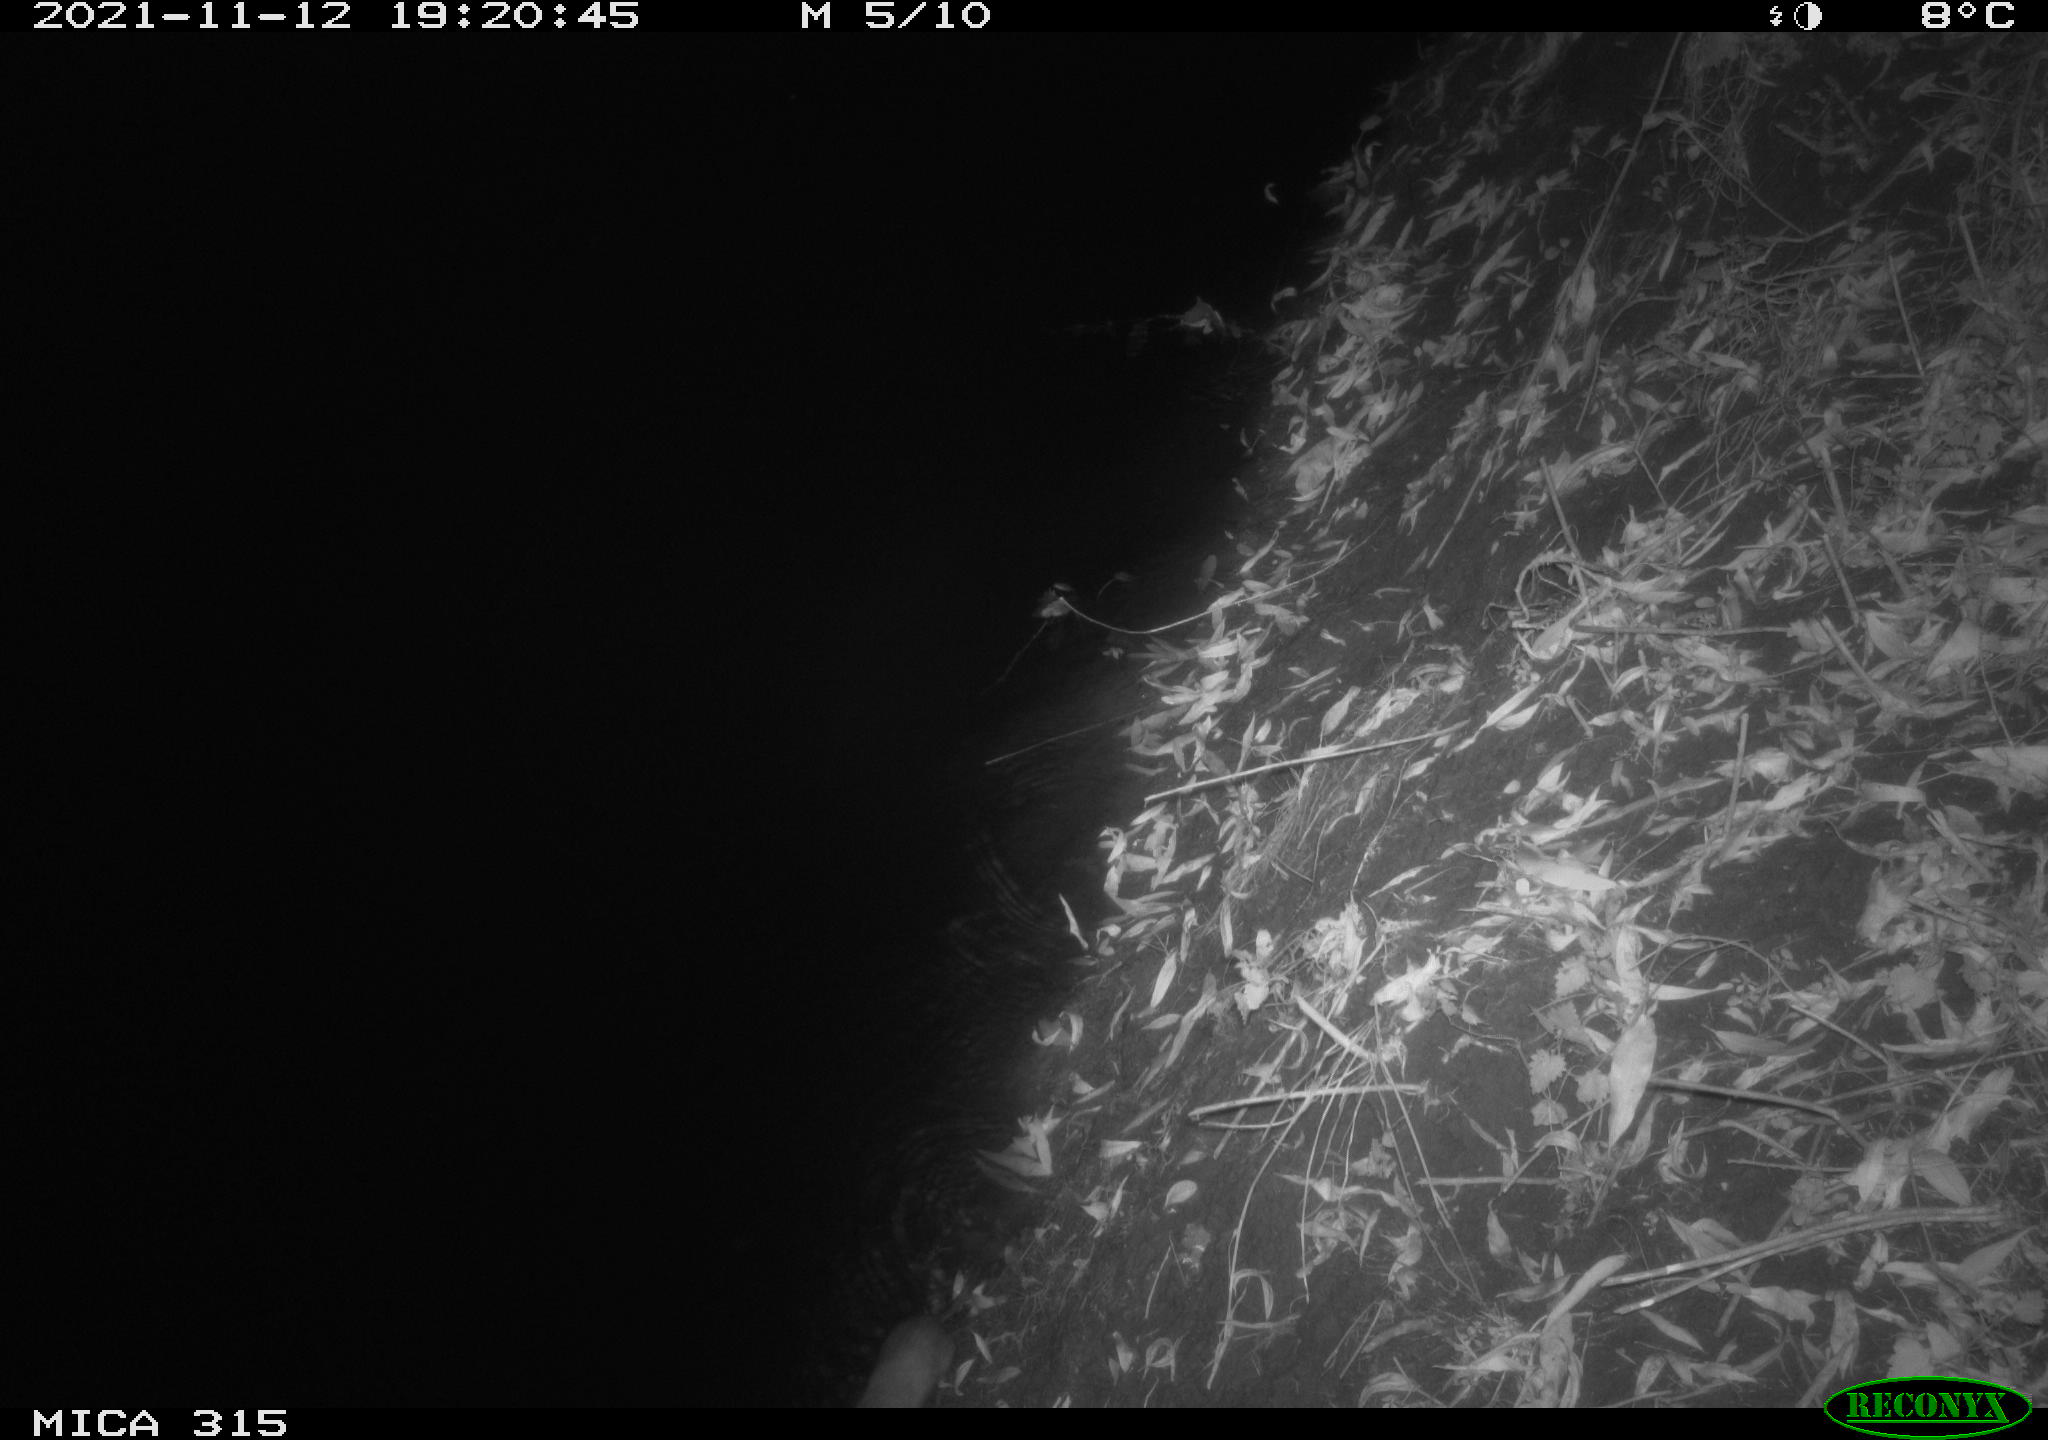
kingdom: Animalia
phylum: Chordata
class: Mammalia
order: Rodentia
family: Muridae
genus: Rattus
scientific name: Rattus norvegicus
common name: Brown rat
